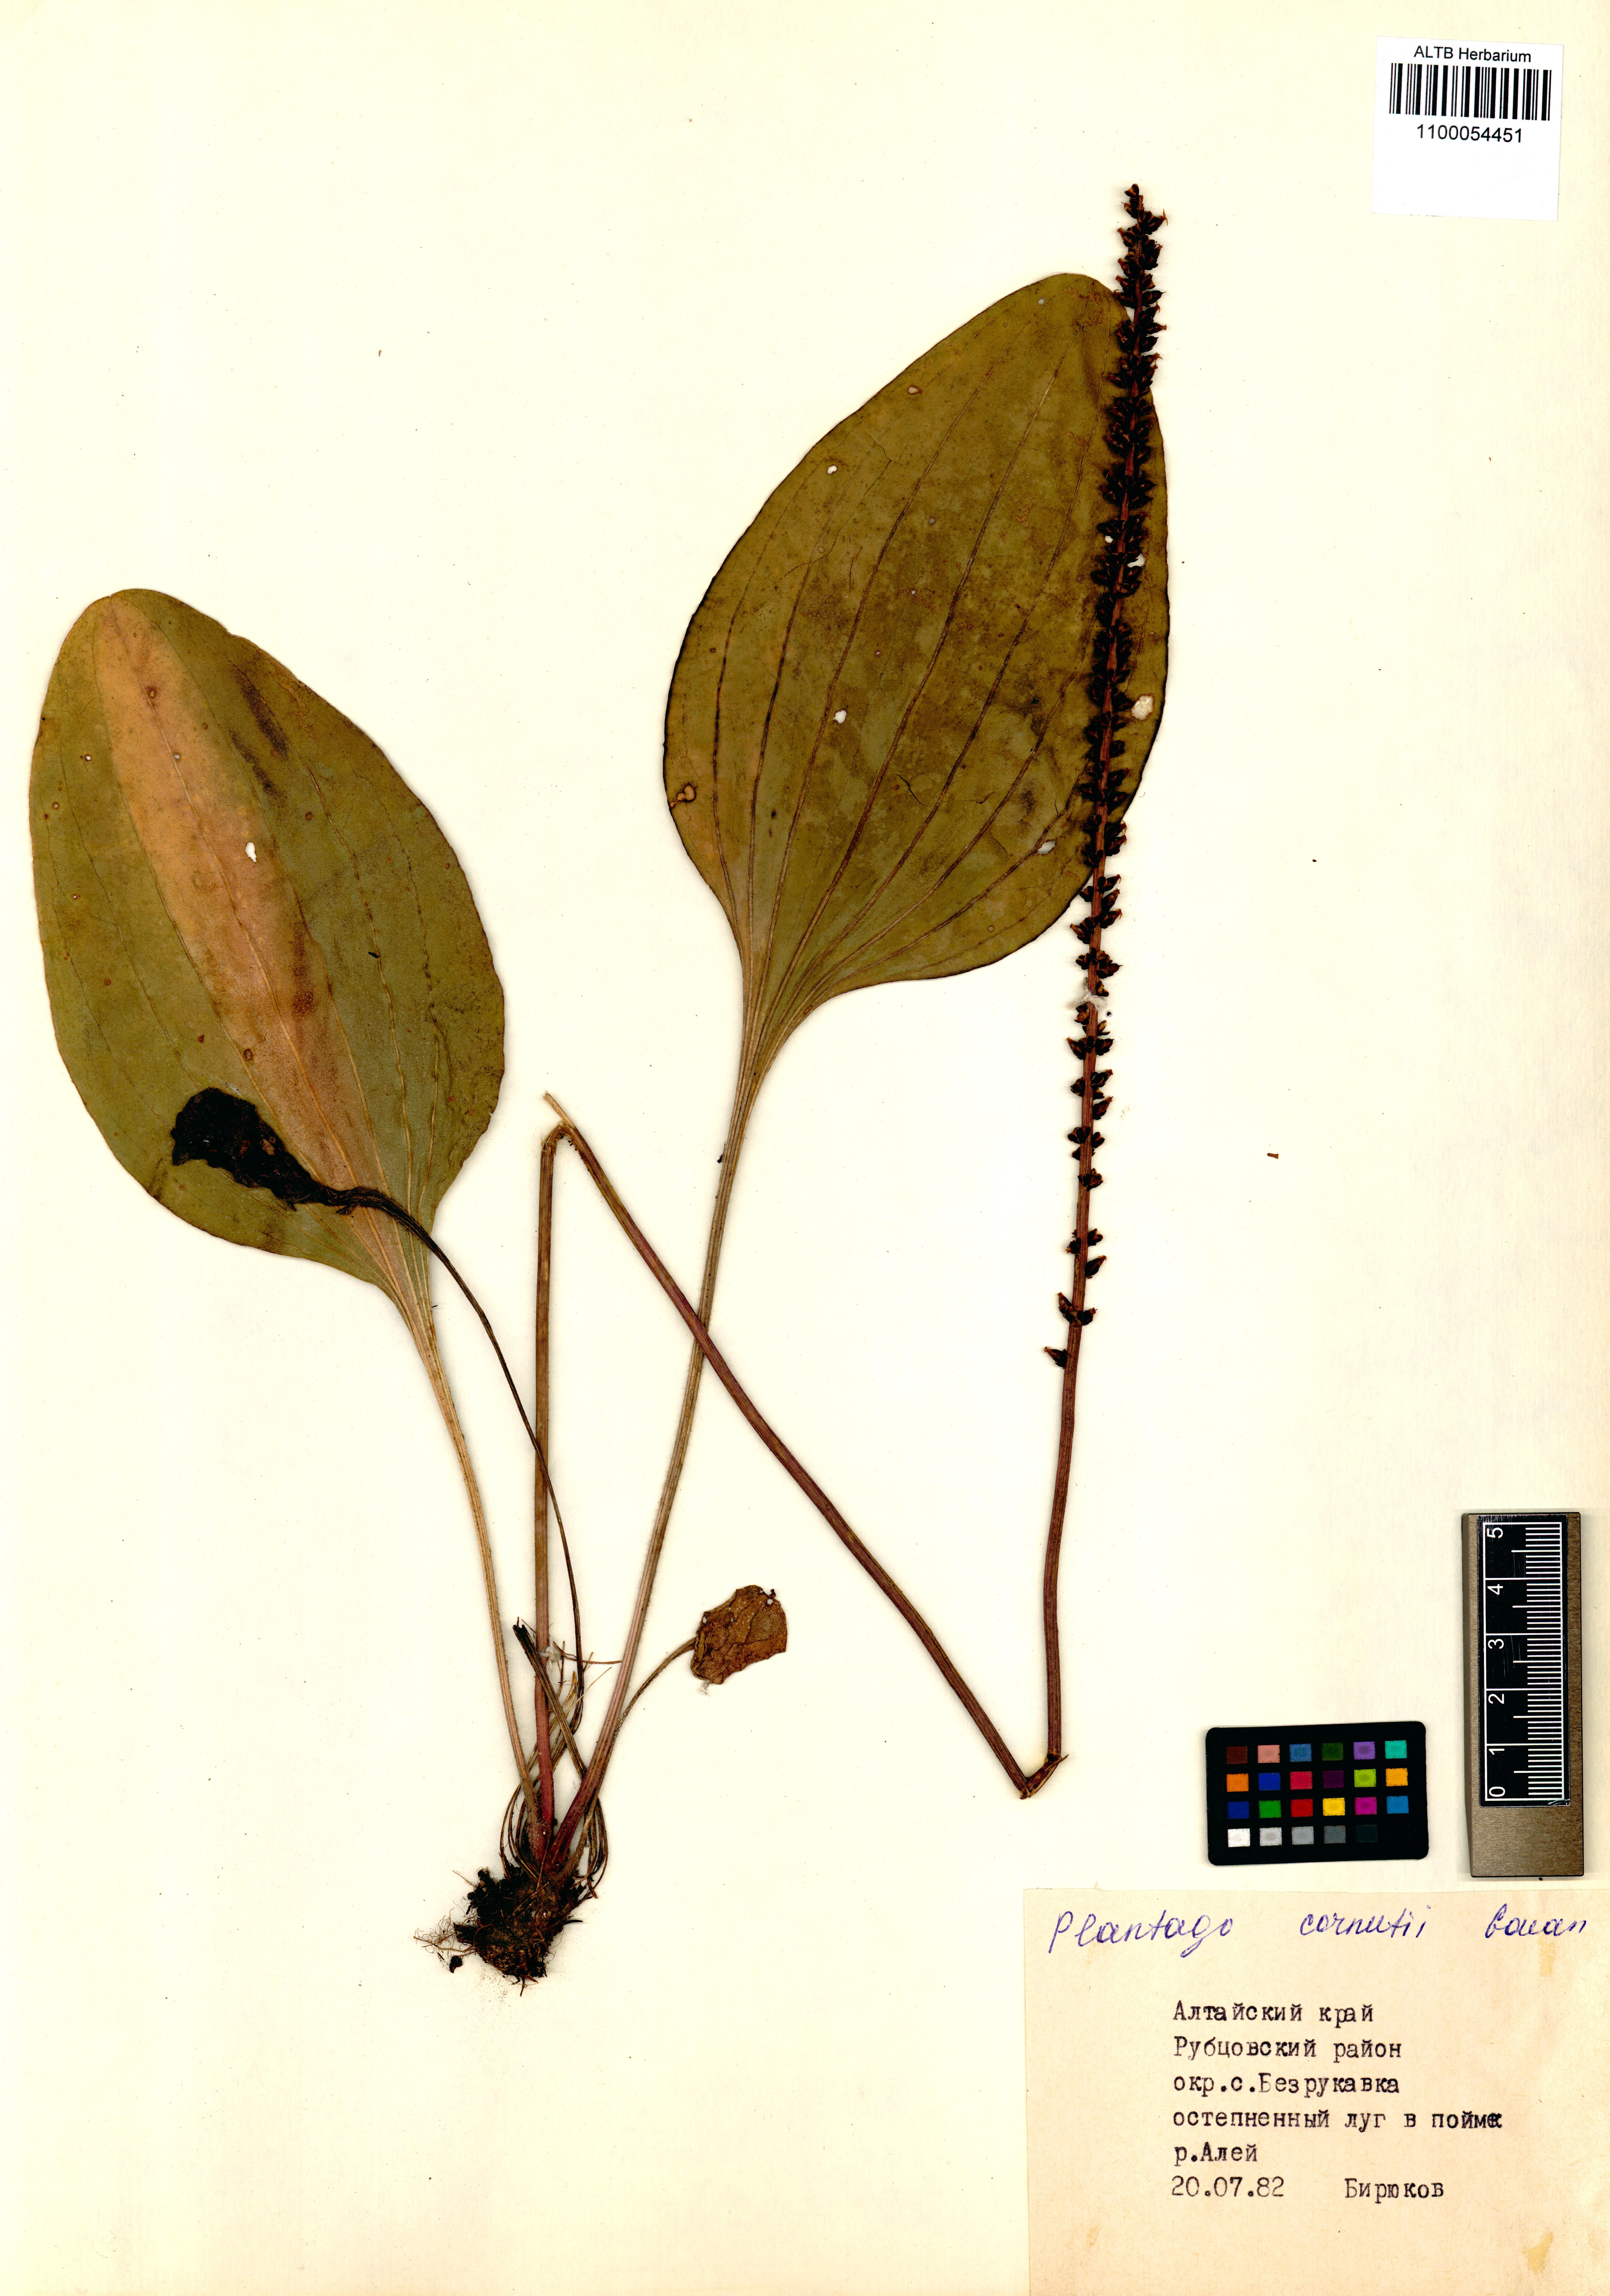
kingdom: Plantae
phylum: Tracheophyta
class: Magnoliopsida
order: Lamiales
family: Plantaginaceae
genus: Plantago
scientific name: Plantago cornuti
